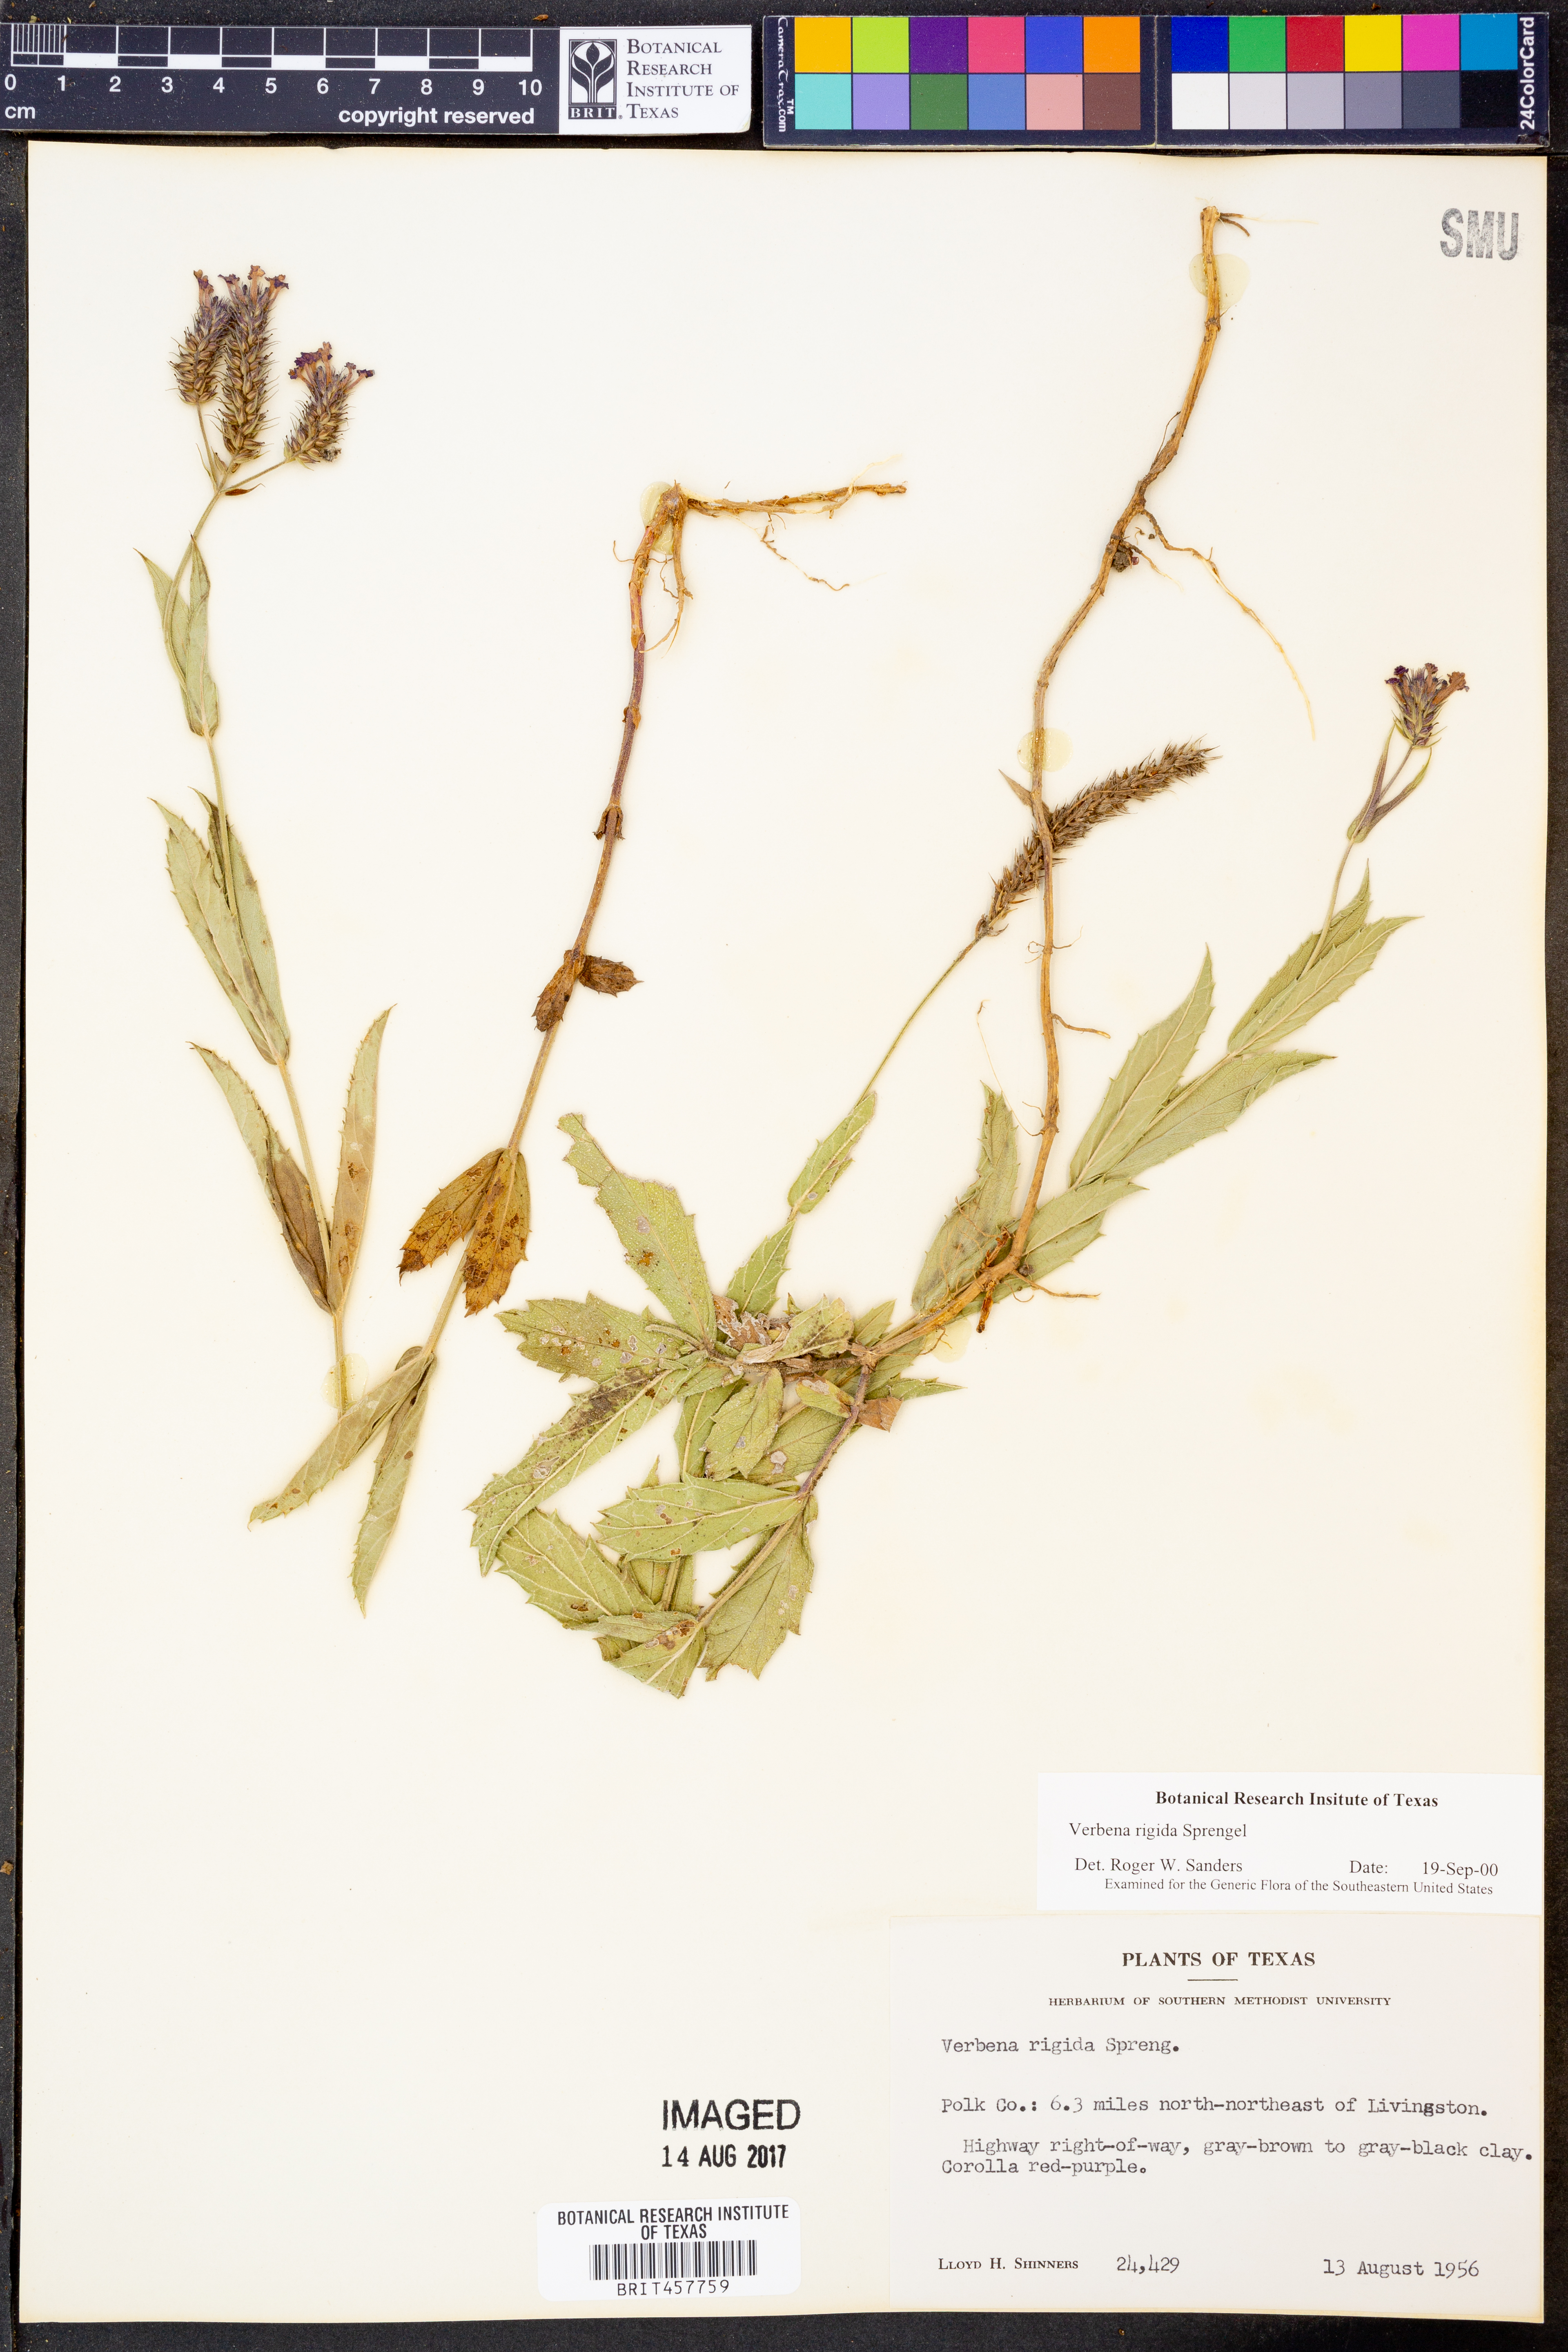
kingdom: Plantae
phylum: Tracheophyta
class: Magnoliopsida
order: Lamiales
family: Verbenaceae
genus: Verbena
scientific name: Verbena rigida
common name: Slender vervain
